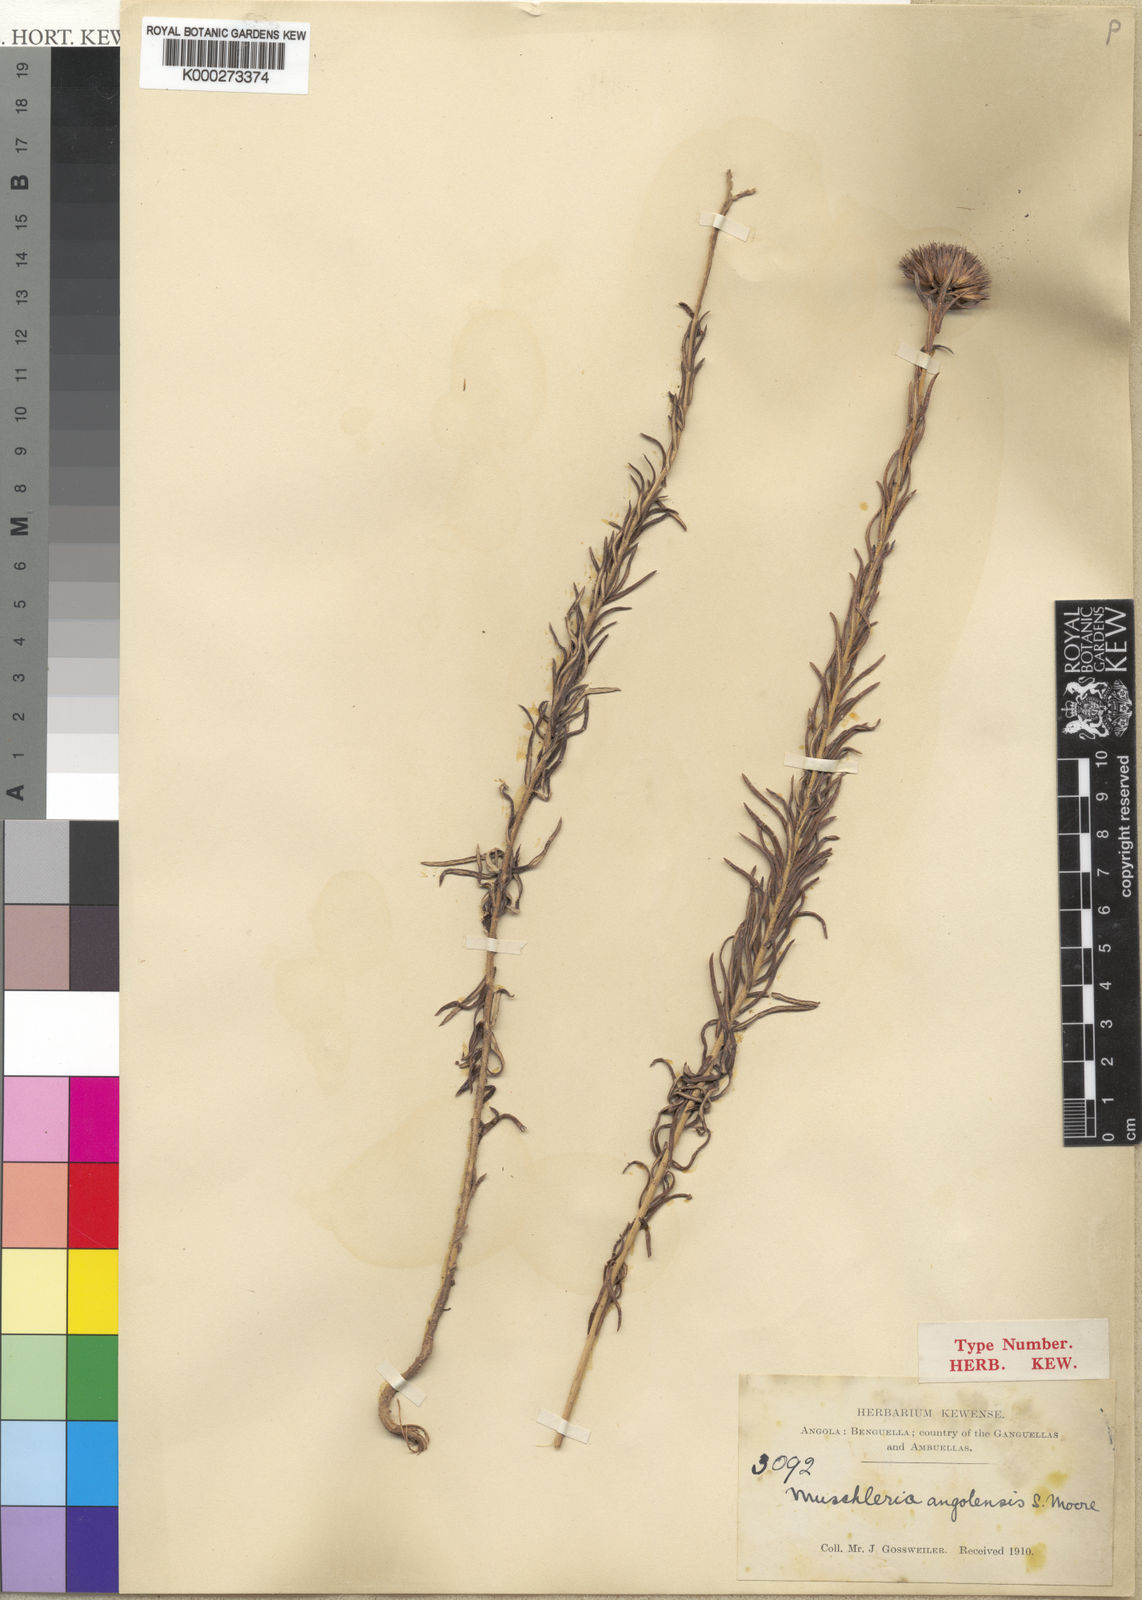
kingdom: Plantae
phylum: Tracheophyta
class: Magnoliopsida
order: Asterales
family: Asteraceae
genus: Muschleria
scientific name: Muschleria angolensis
